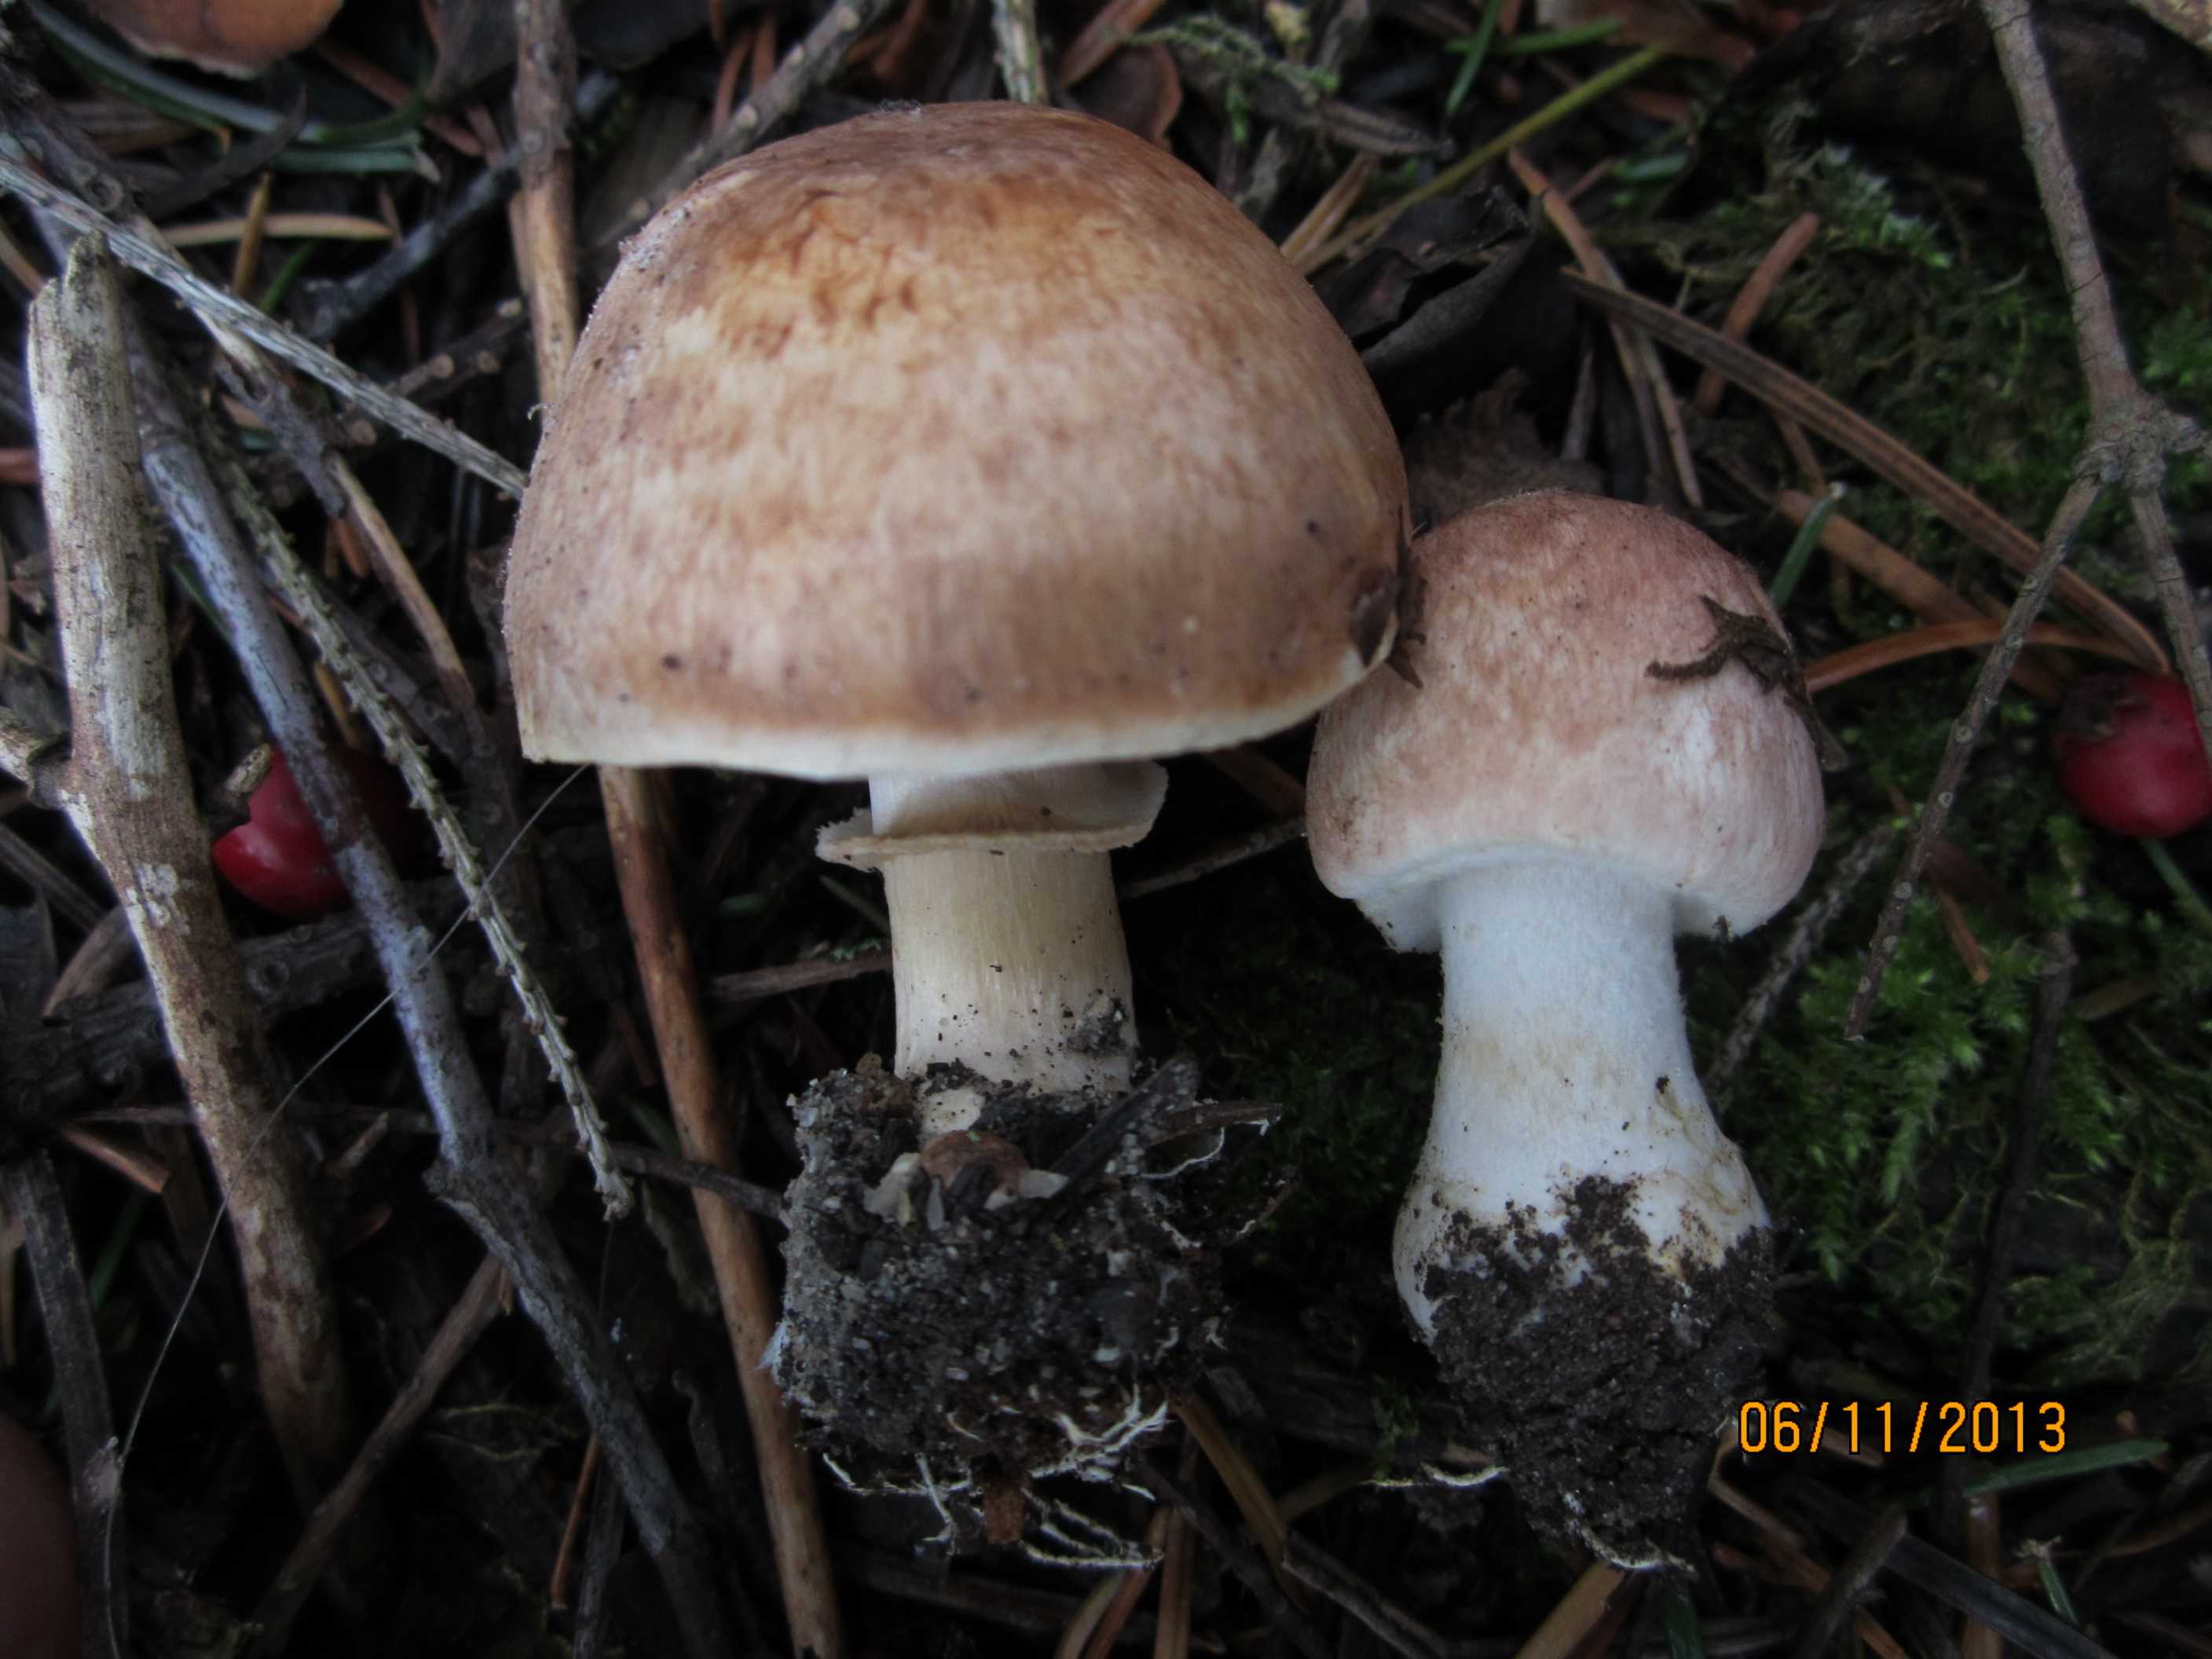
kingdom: Fungi
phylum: Basidiomycota
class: Agaricomycetes
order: Agaricales
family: Agaricaceae
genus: Agaricus
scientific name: Agaricus brunneolus
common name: purpur-champignon
